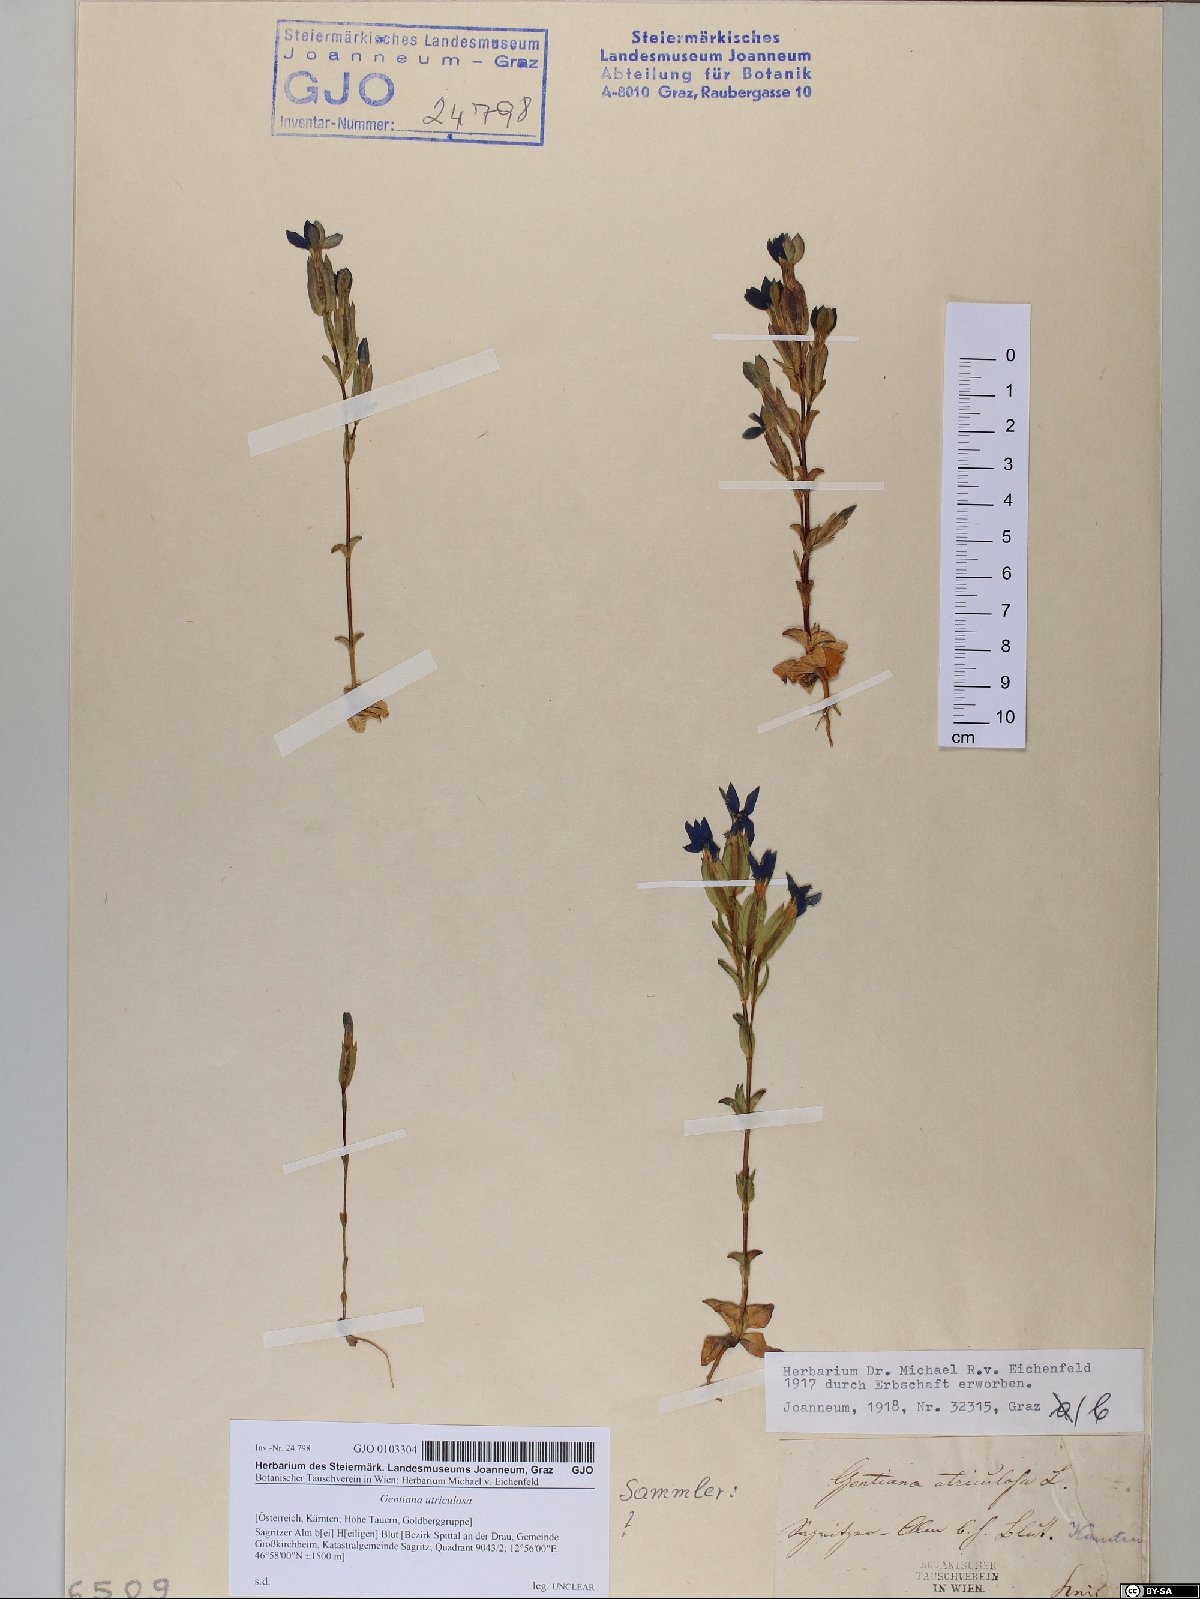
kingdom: Plantae
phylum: Tracheophyta
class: Magnoliopsida
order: Gentianales
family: Gentianaceae
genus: Gentiana
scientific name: Gentiana utriculosa
